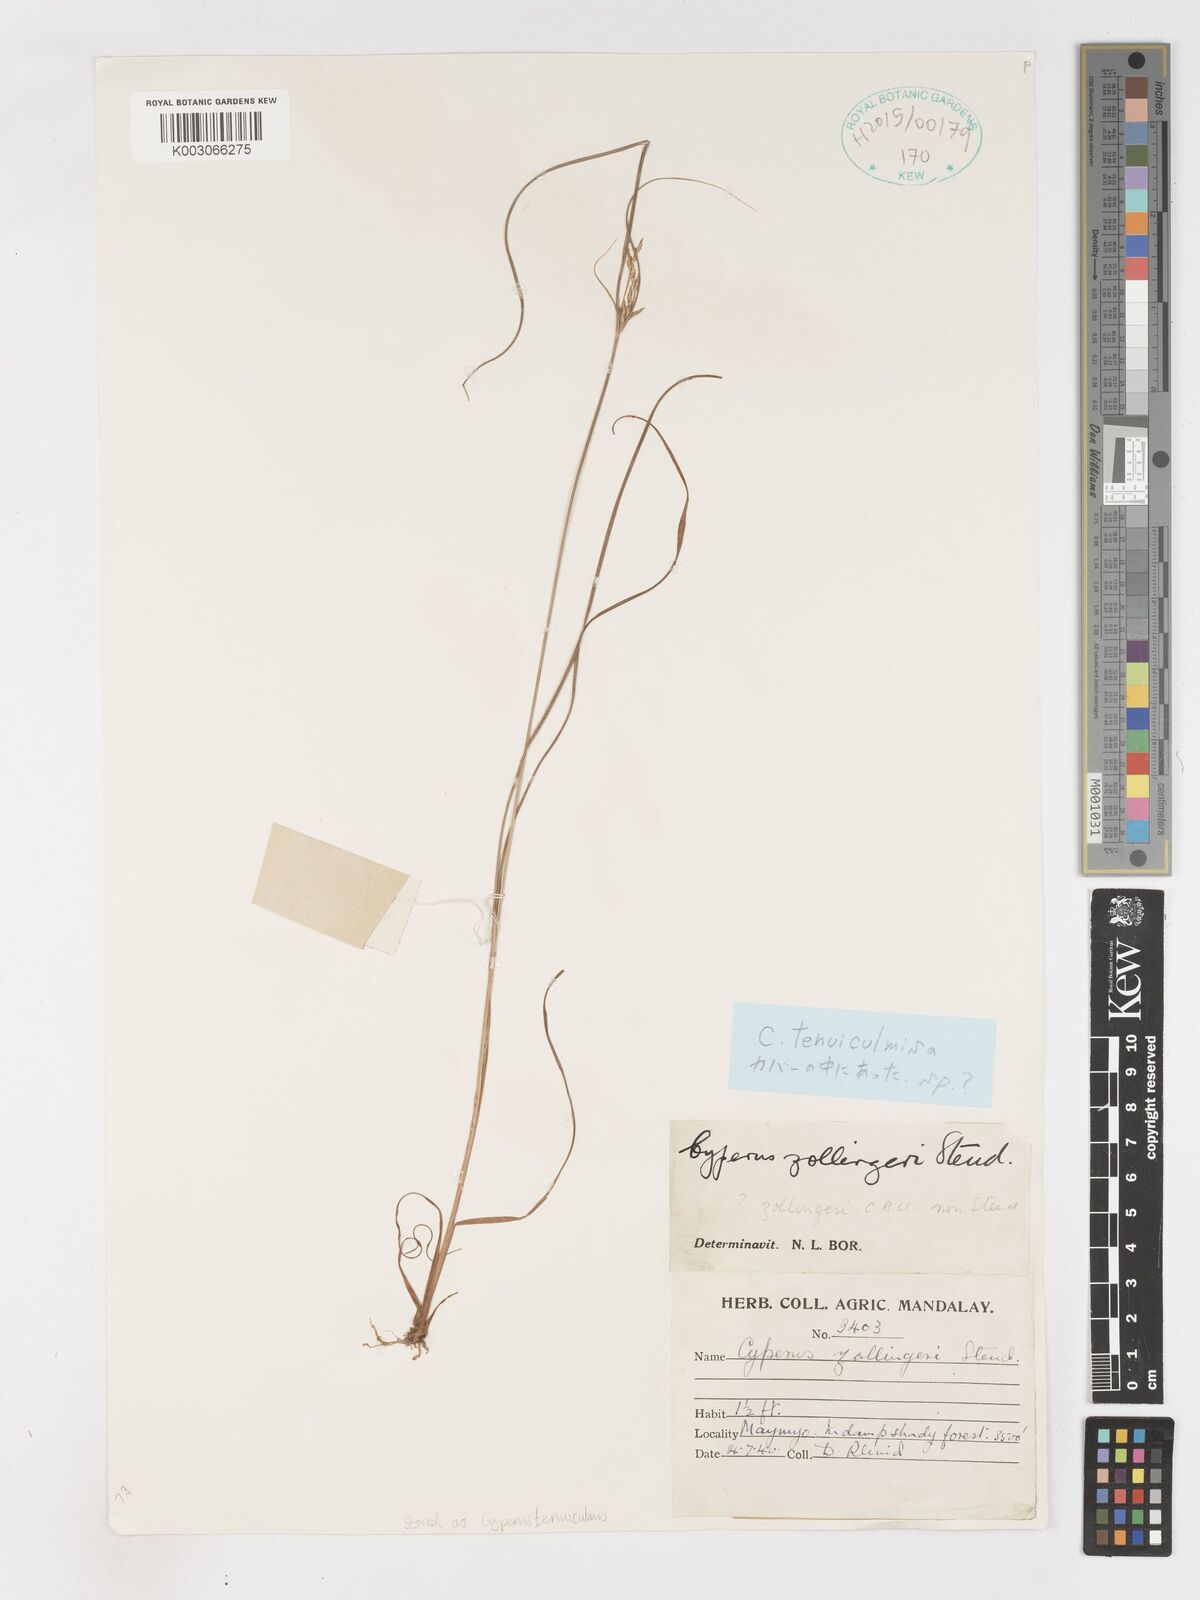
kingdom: Plantae
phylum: Tracheophyta
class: Liliopsida
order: Poales
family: Cyperaceae
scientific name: Cyperaceae
